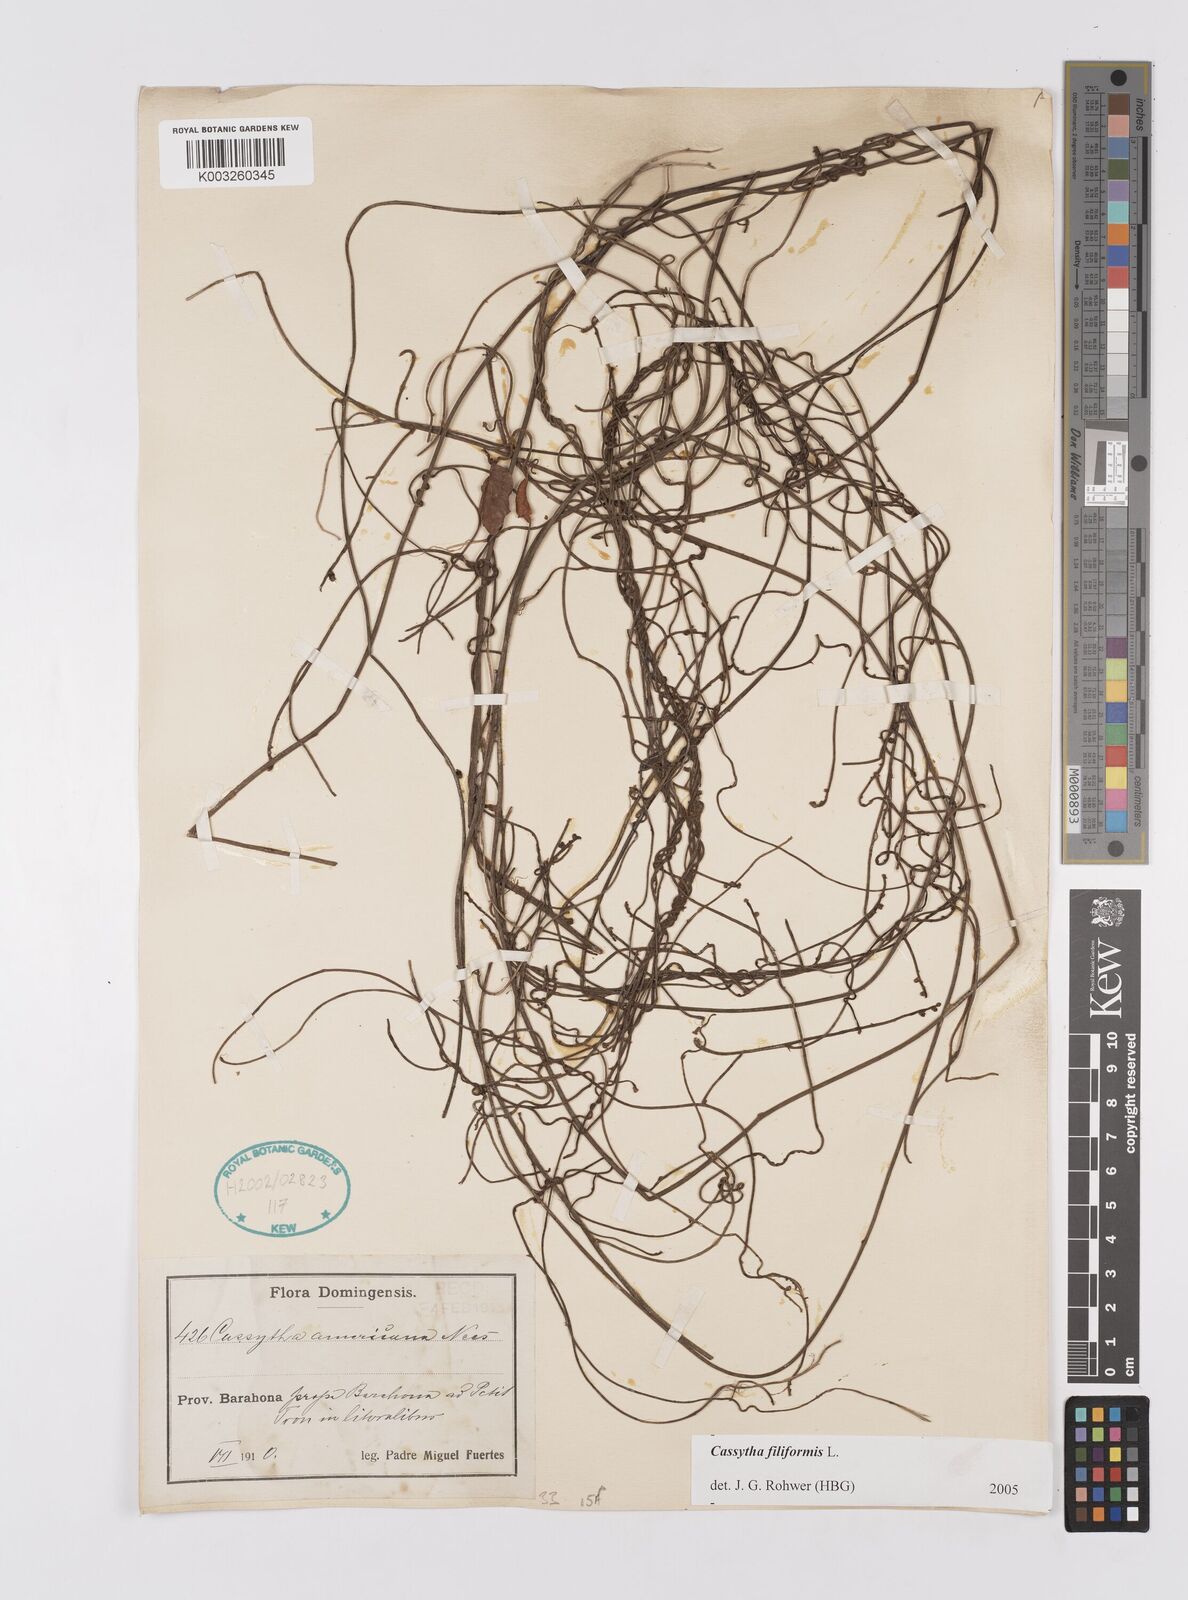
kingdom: Plantae
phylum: Tracheophyta
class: Magnoliopsida
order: Laurales
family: Lauraceae
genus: Cassytha
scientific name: Cassytha filiformis
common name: Dodder-laurel
